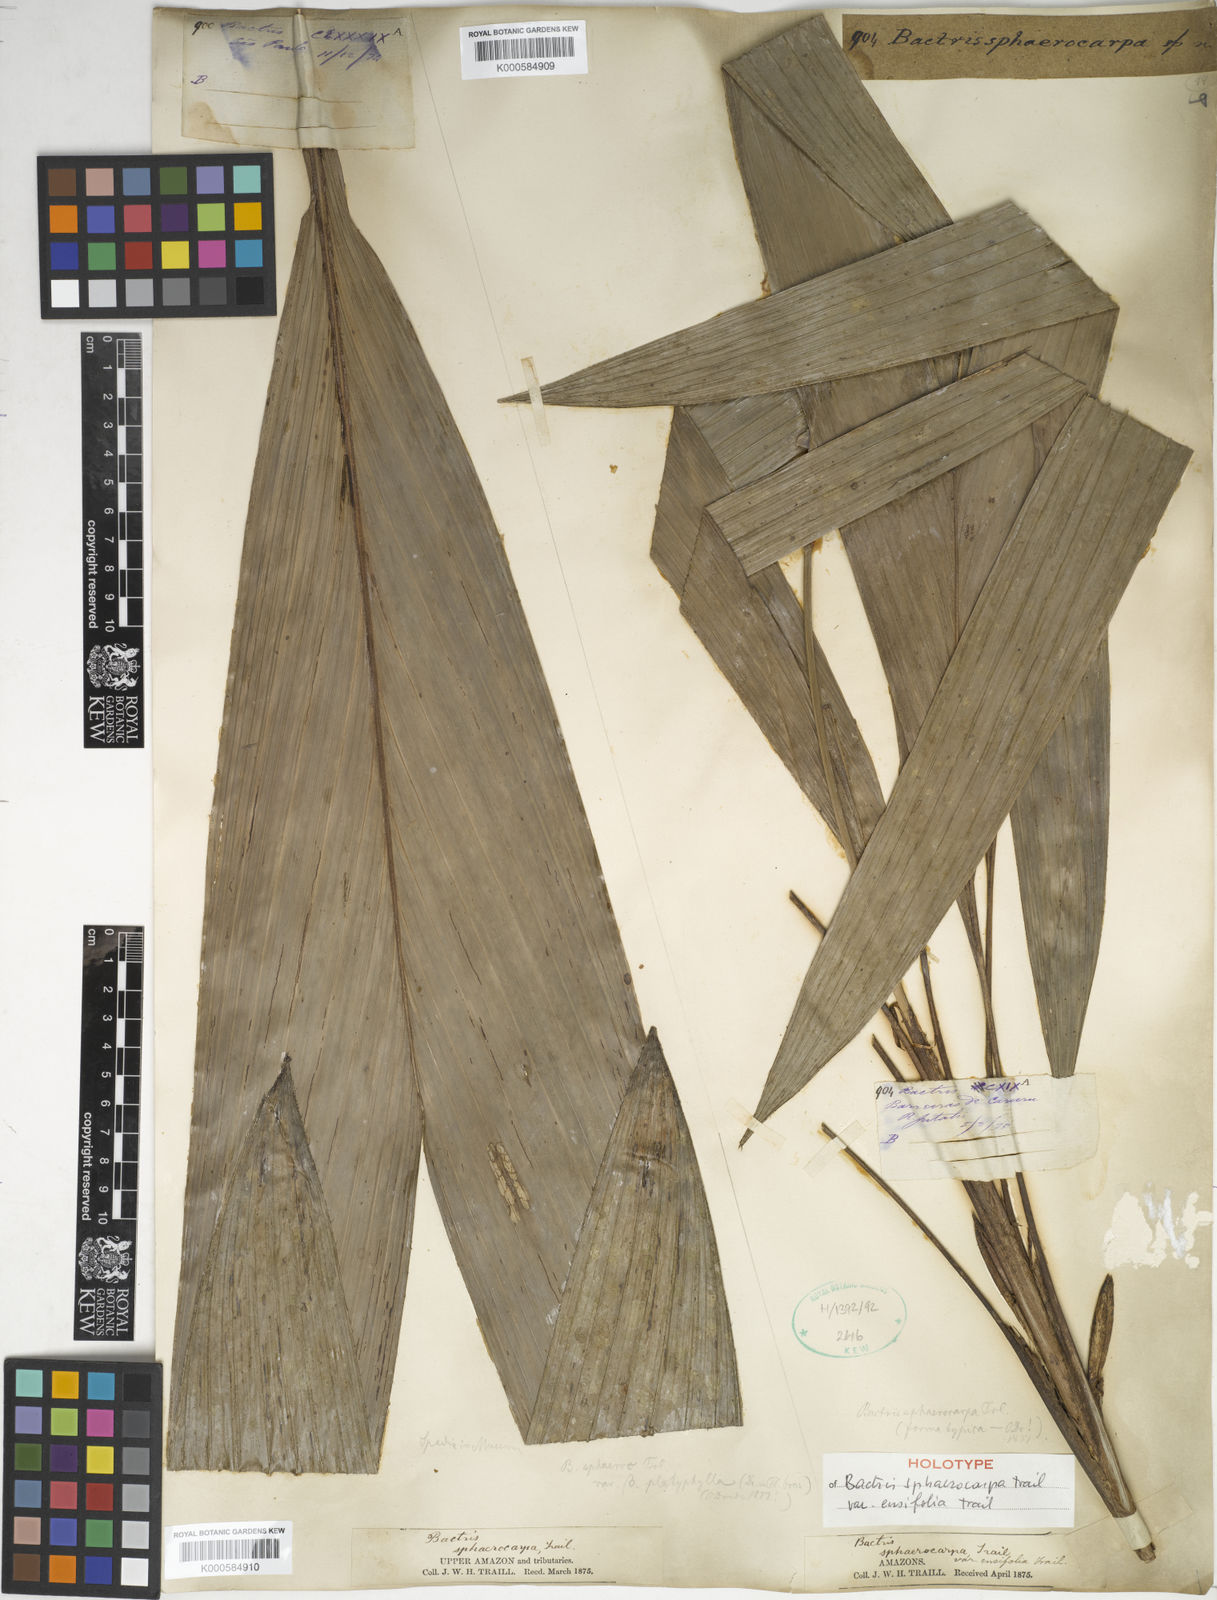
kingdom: Plantae
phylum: Tracheophyta
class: Liliopsida
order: Arecales
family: Arecaceae
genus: Bactris
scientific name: Bactris sphaerocarpa
